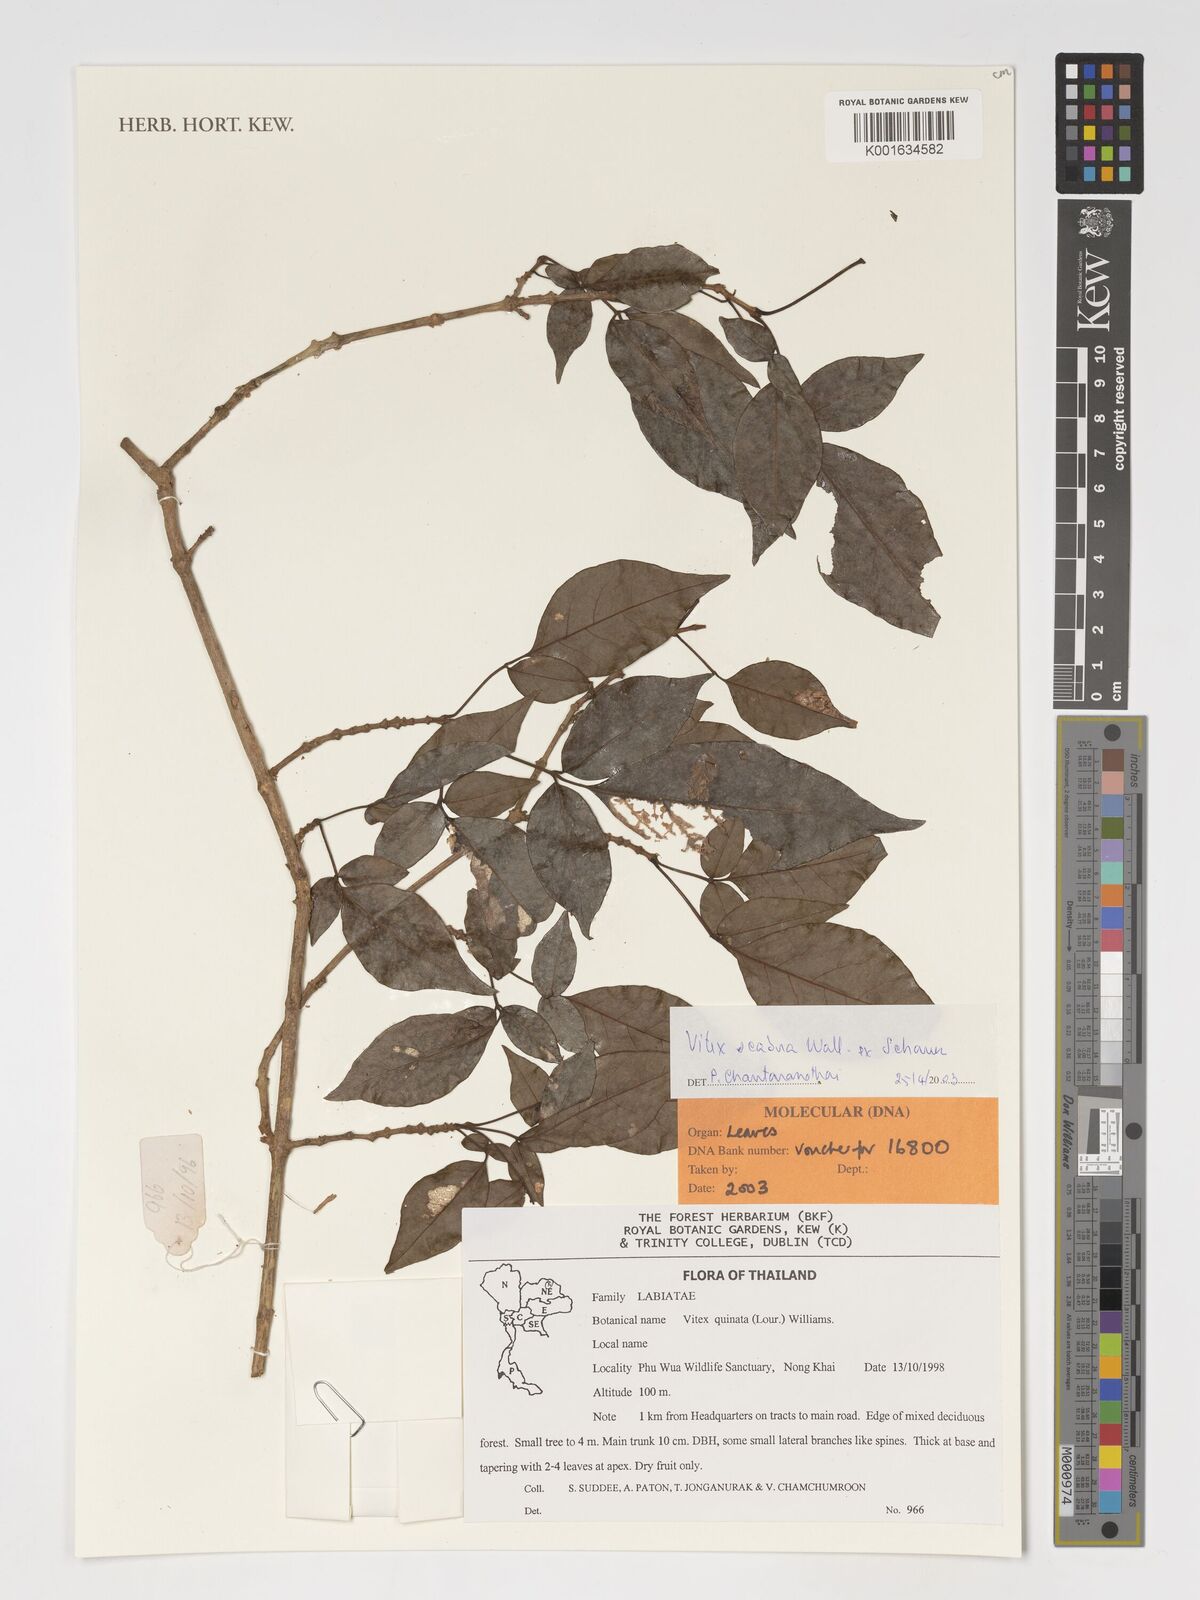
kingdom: Plantae
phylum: Tracheophyta
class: Magnoliopsida
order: Lamiales
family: Lamiaceae
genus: Vitex
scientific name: Vitex scabra
